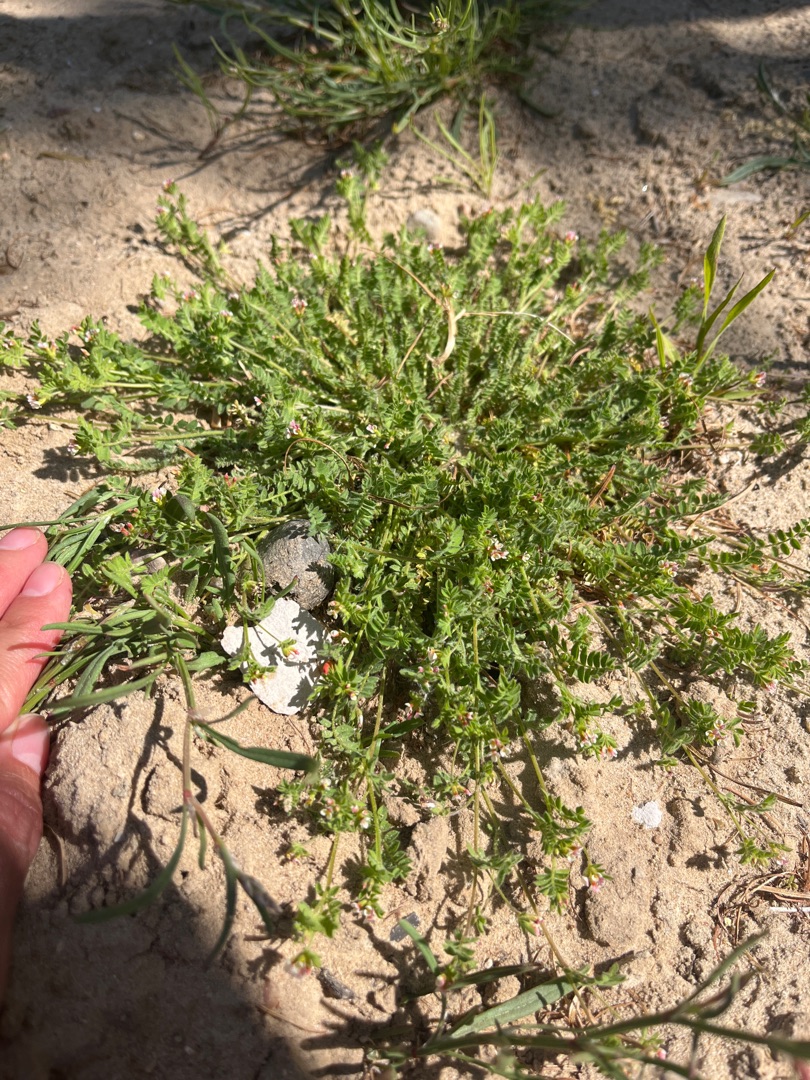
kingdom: Plantae
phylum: Tracheophyta
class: Magnoliopsida
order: Fabales
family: Fabaceae
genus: Ornithopus
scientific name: Ornithopus perpusillus
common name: Liden fugleklo
